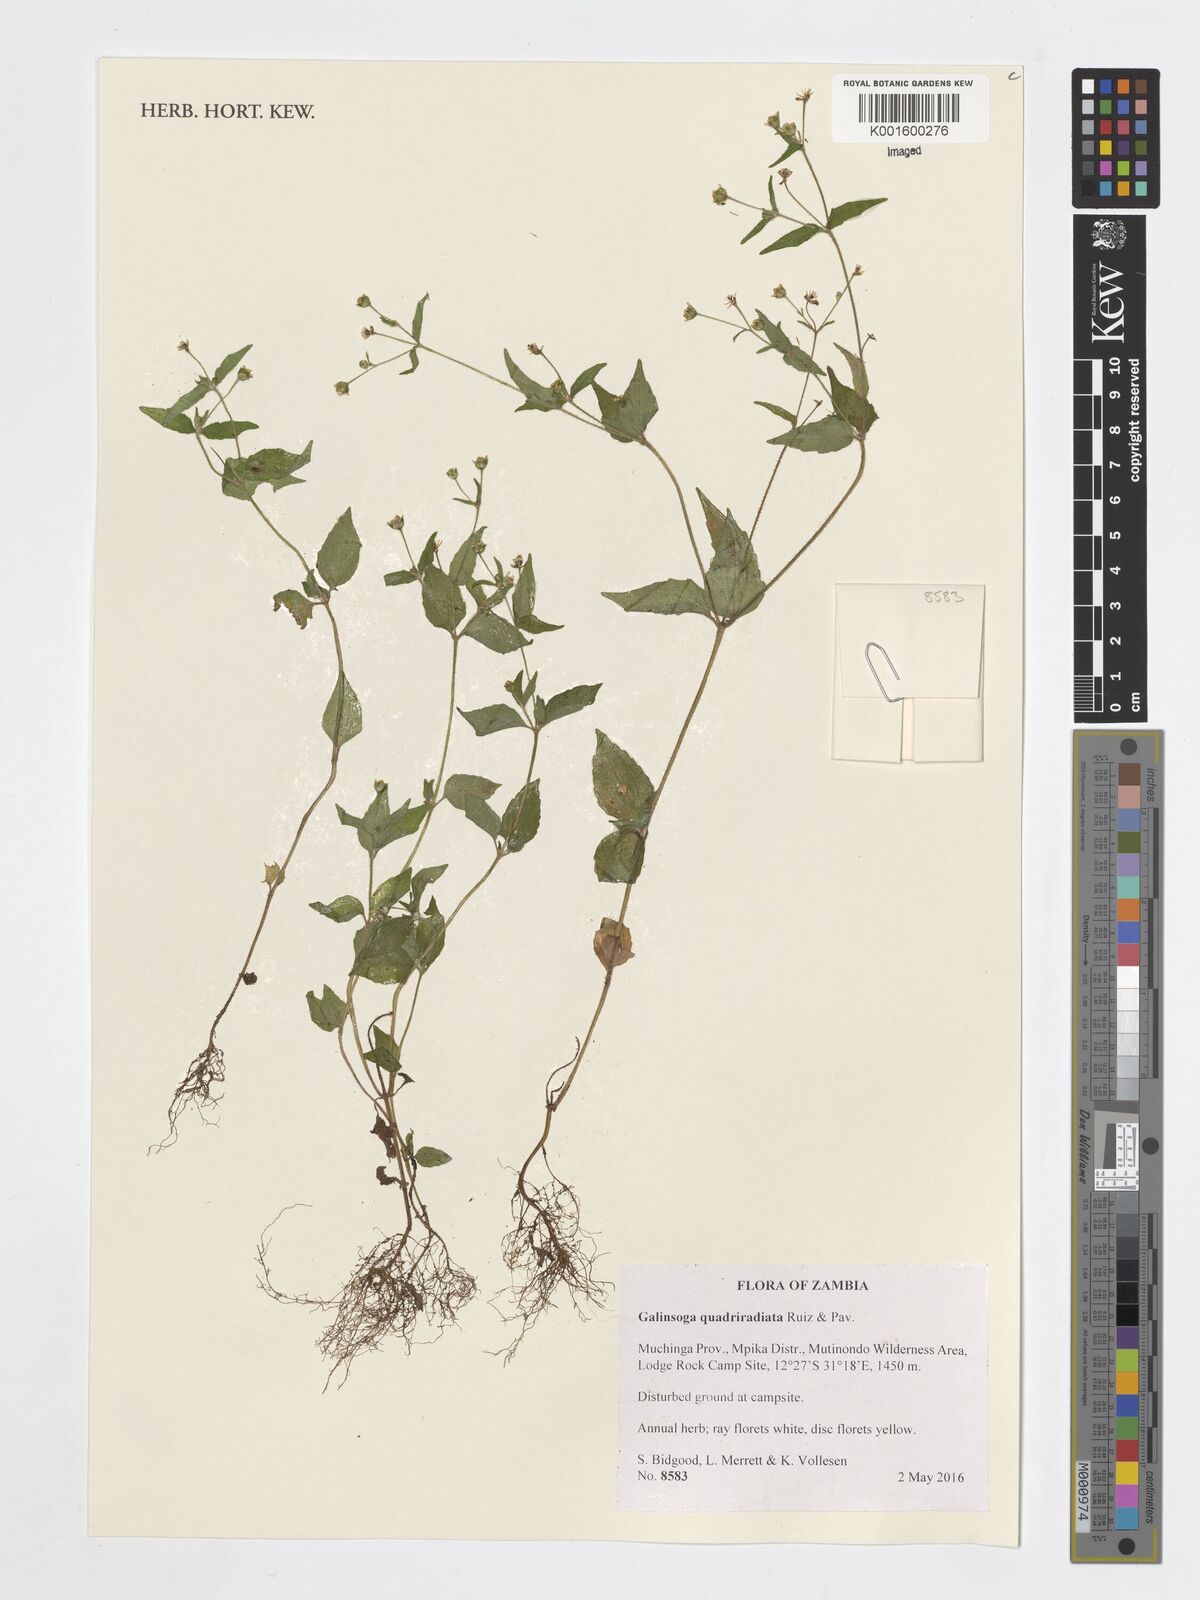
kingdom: Plantae
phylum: Tracheophyta
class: Magnoliopsida
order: Asterales
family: Asteraceae
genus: Galinsoga
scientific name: Galinsoga quadriradiata
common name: Shaggy soldier
